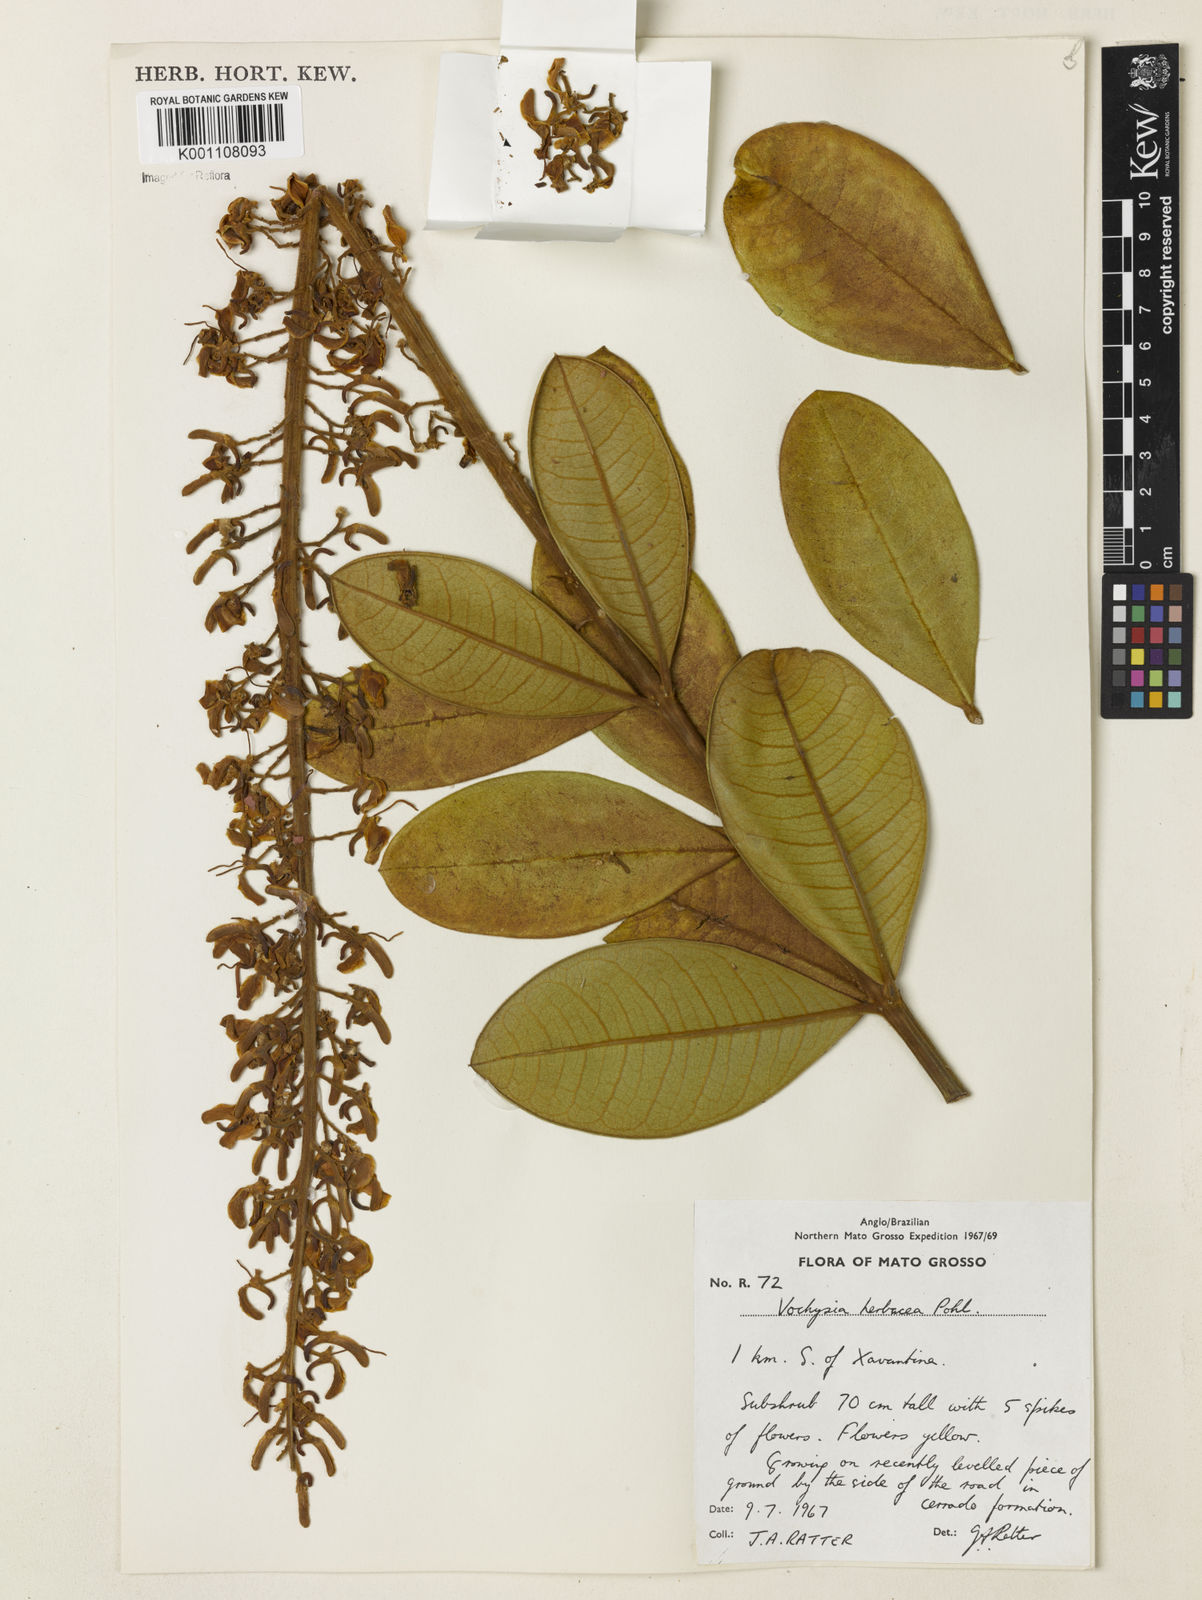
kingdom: Plantae
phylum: Tracheophyta
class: Magnoliopsida
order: Myrtales
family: Vochysiaceae
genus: Vochysia
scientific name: Vochysia herbacea
